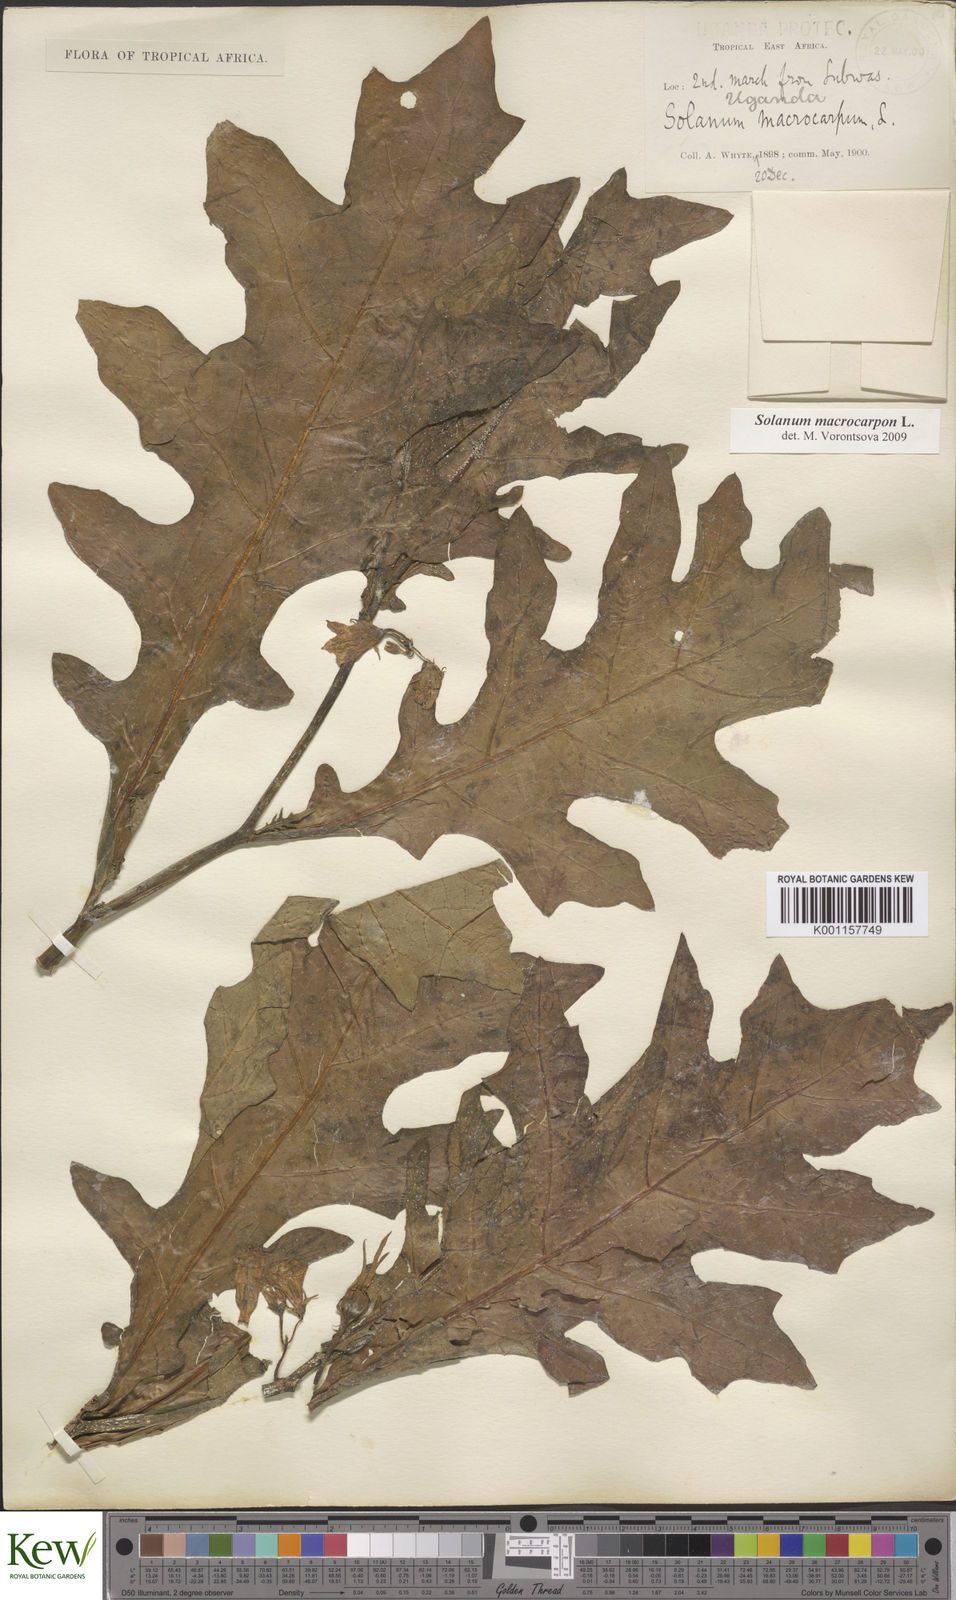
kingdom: Plantae
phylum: Tracheophyta
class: Magnoliopsida
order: Solanales
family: Solanaceae
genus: Solanum
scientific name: Solanum macrocarpon
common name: African eggplant
